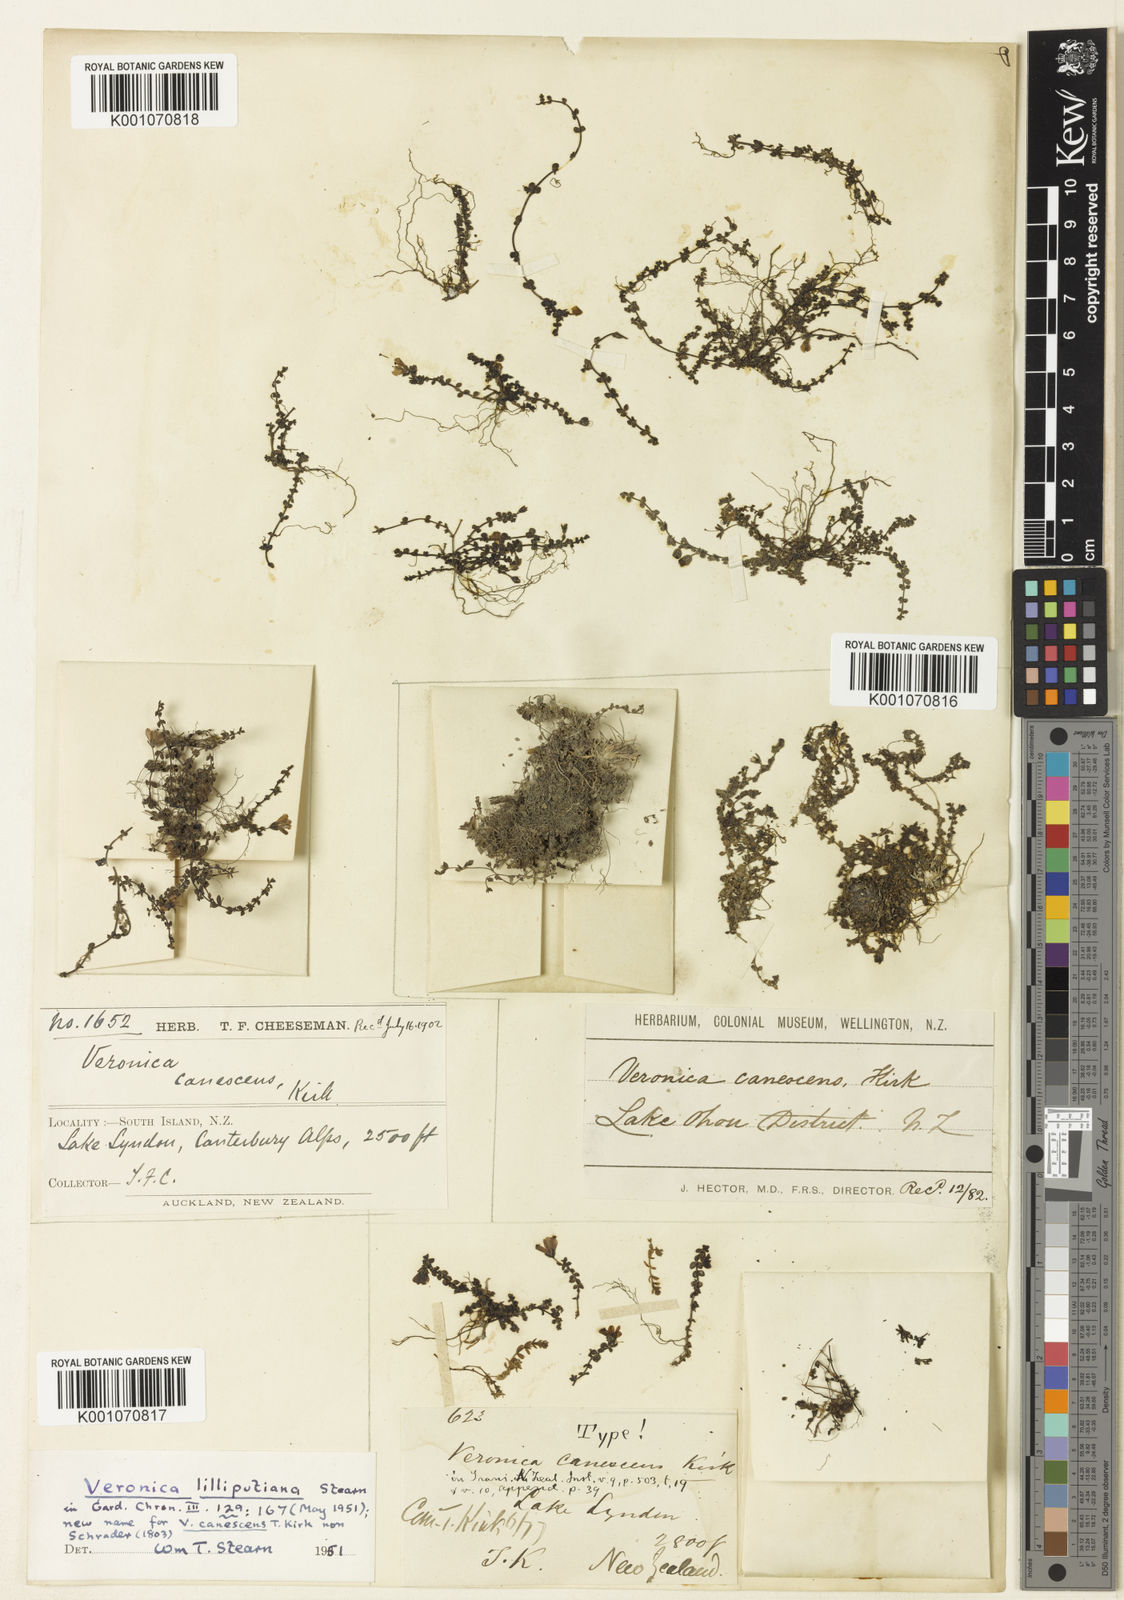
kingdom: Plantae
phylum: Tracheophyta
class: Magnoliopsida
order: Lamiales
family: Plantaginaceae
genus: Veronica
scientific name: Veronica lilliputiana
